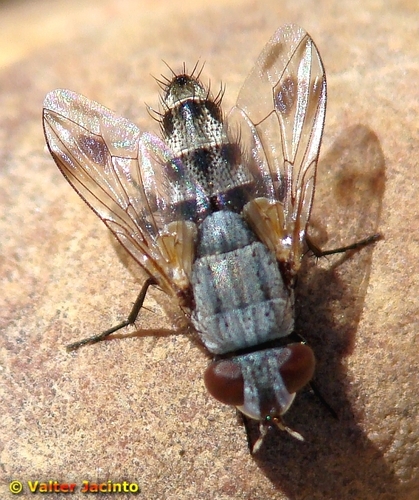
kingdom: Animalia
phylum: Arthropoda
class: Insecta
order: Diptera
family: Sarcophagidae
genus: Phylloteles
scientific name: Phylloteles pictipennis
